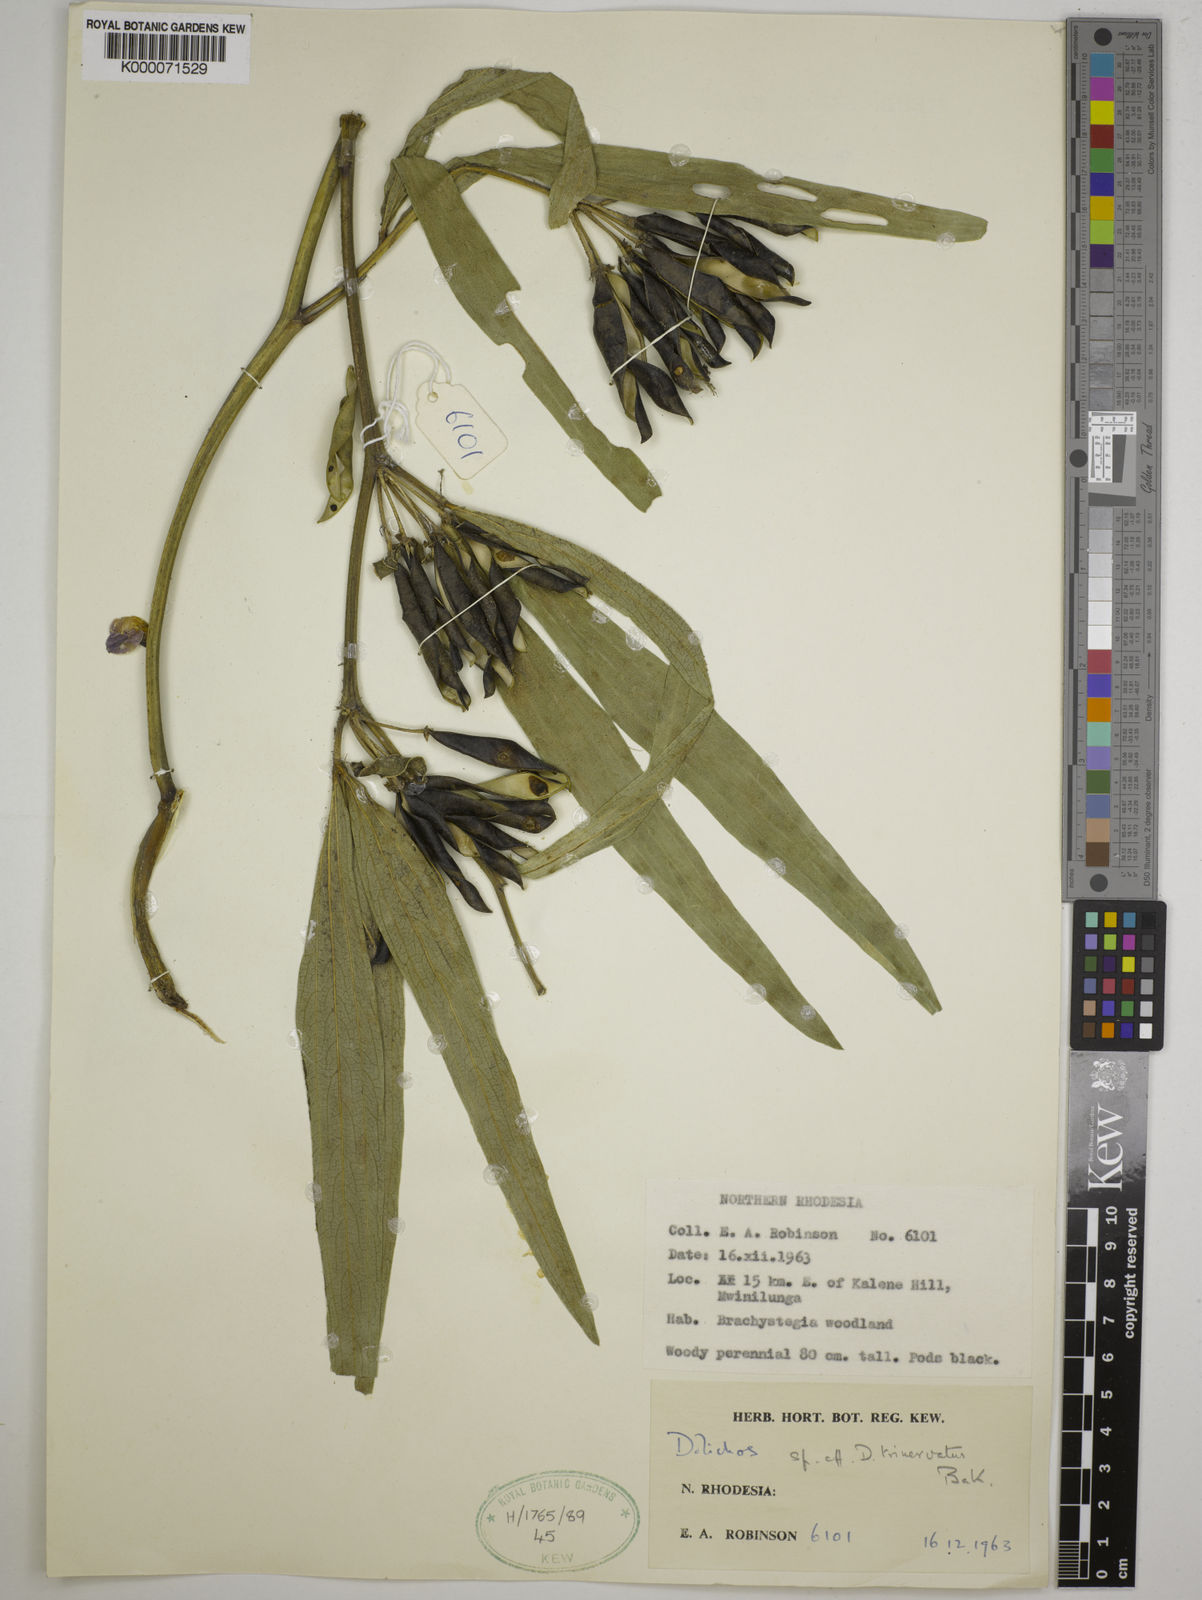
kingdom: Plantae
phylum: Tracheophyta
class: Magnoliopsida
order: Fabales
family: Fabaceae
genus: Dolichos
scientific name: Dolichos trinervatus
